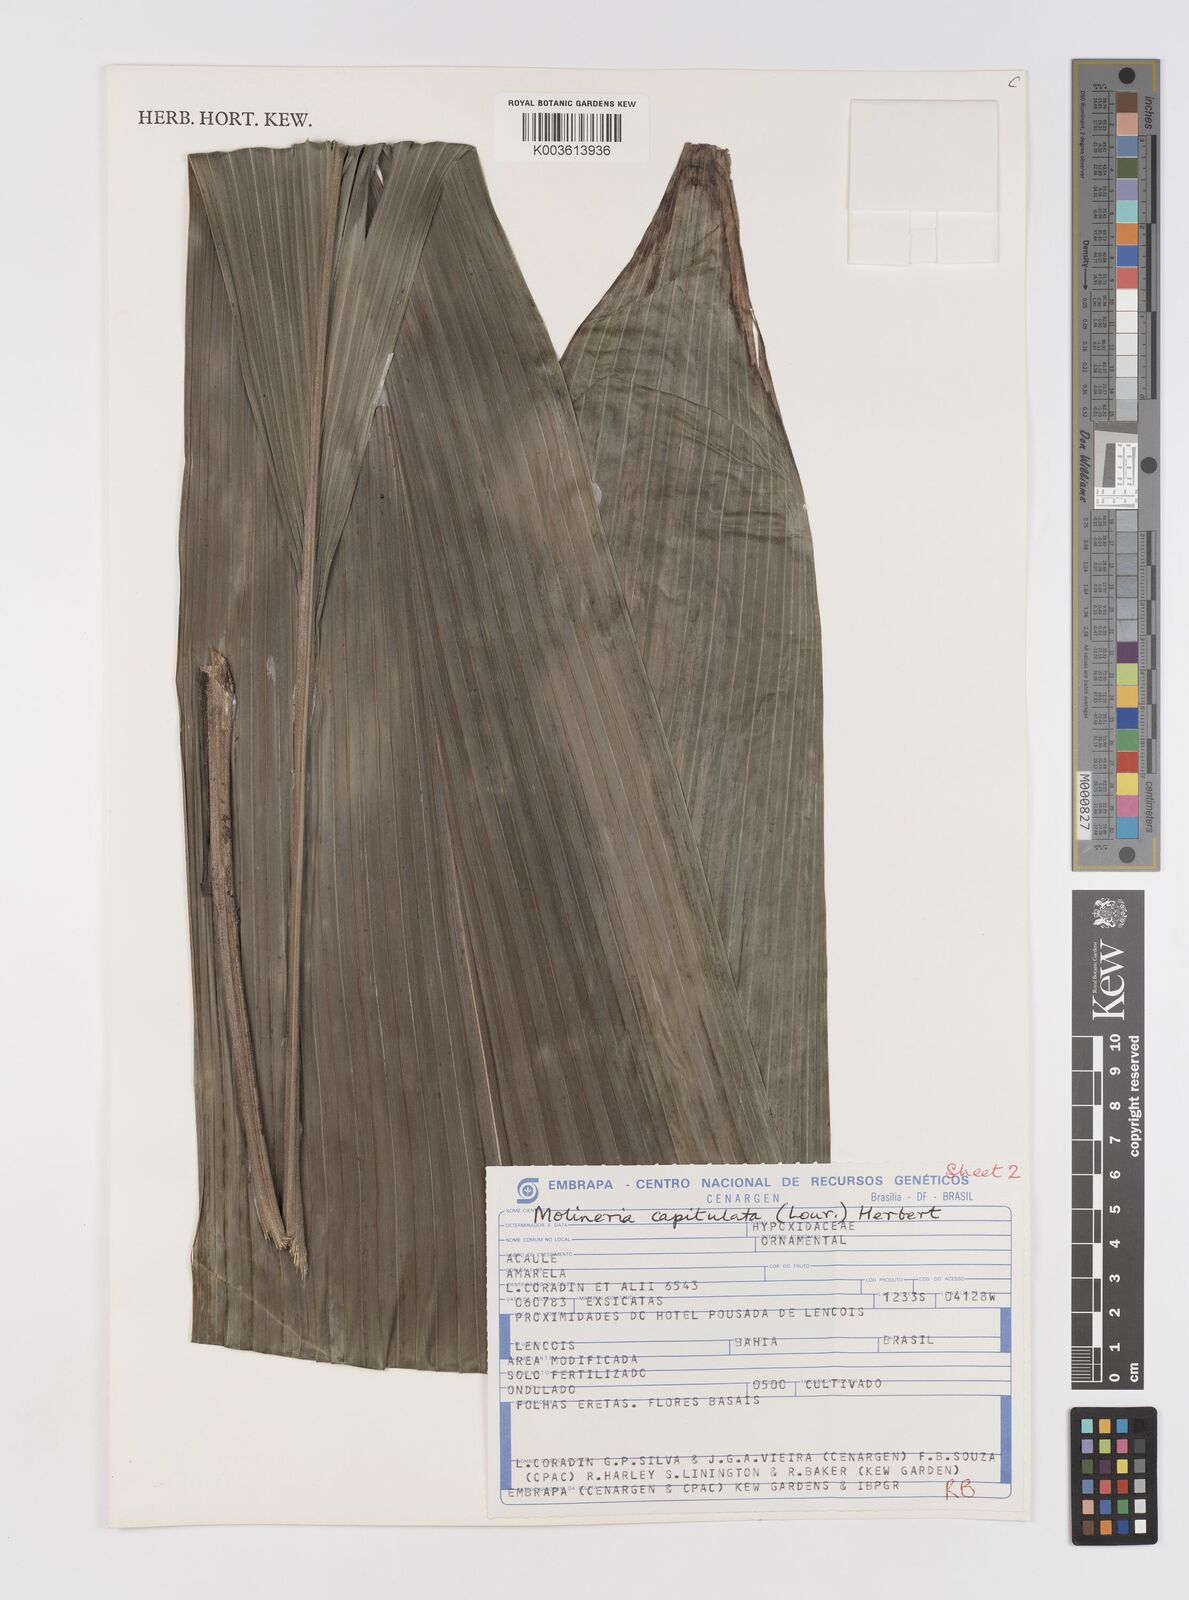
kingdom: Plantae
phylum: Tracheophyta
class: Liliopsida
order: Asparagales
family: Hypoxidaceae
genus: Curculigo
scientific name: Curculigo capitulata
